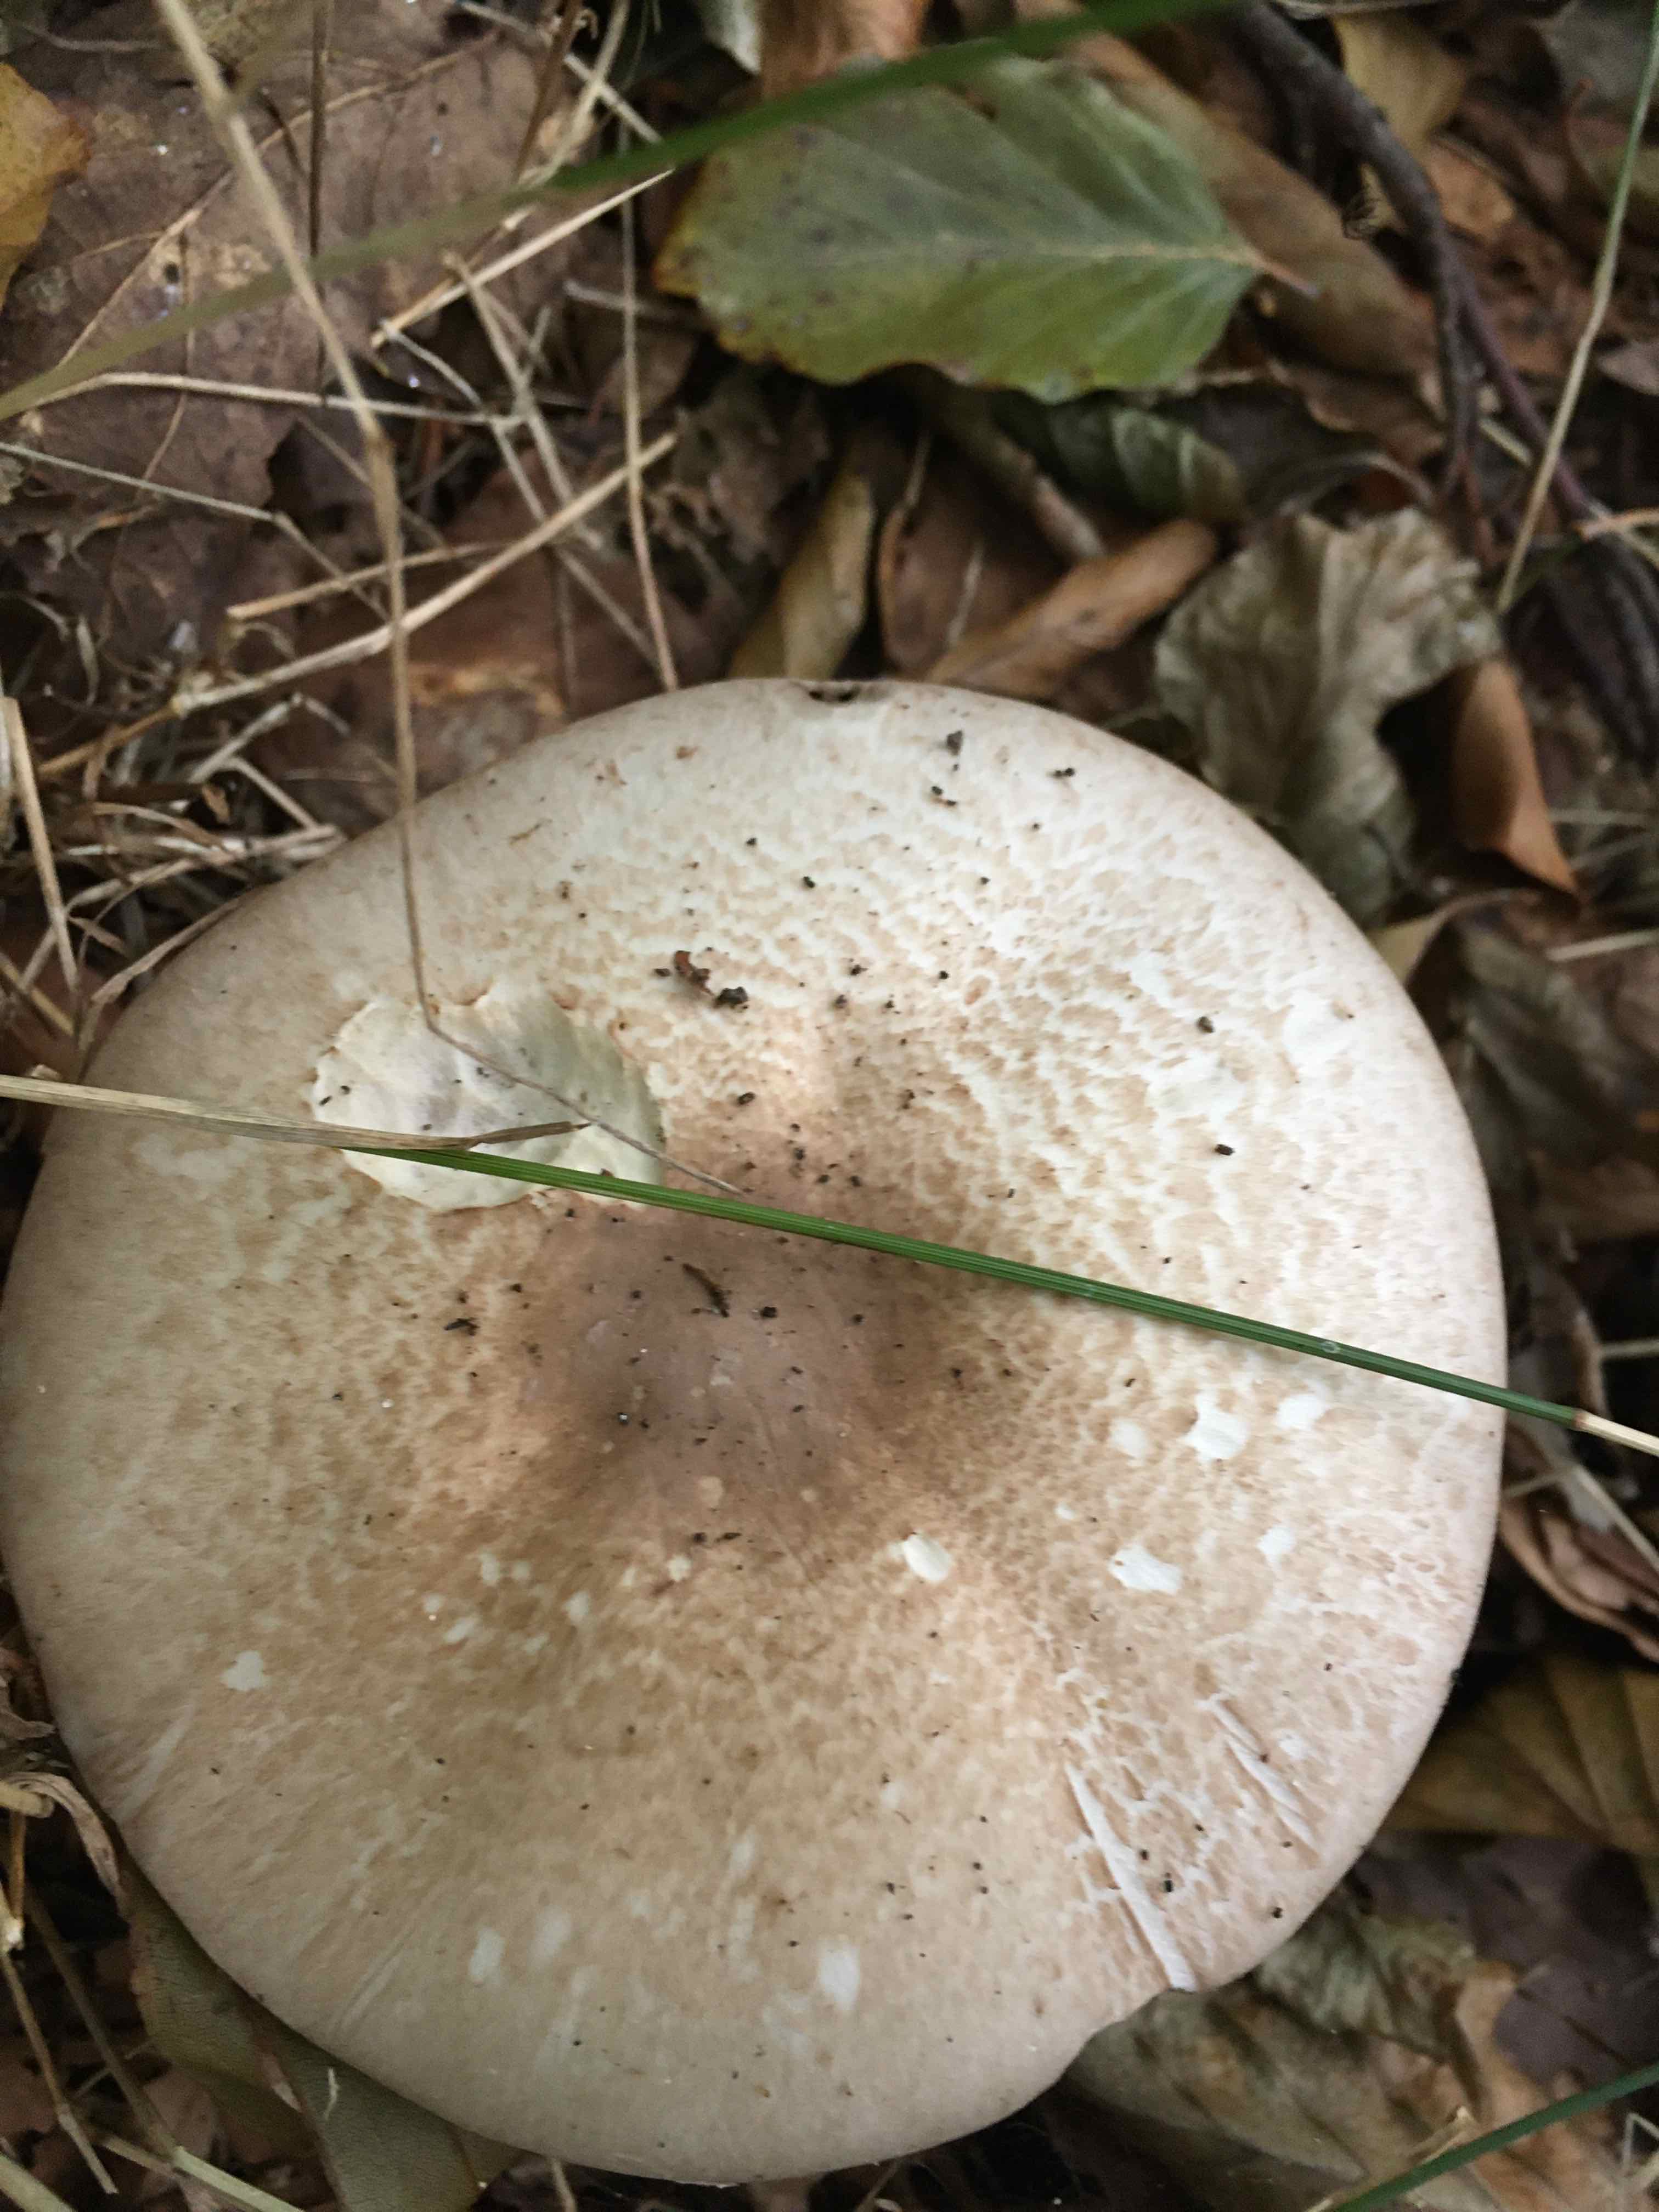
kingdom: Fungi
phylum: Basidiomycota
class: Agaricomycetes
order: Agaricales
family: Agaricaceae
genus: Agaricus
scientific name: Agaricus impudicus
